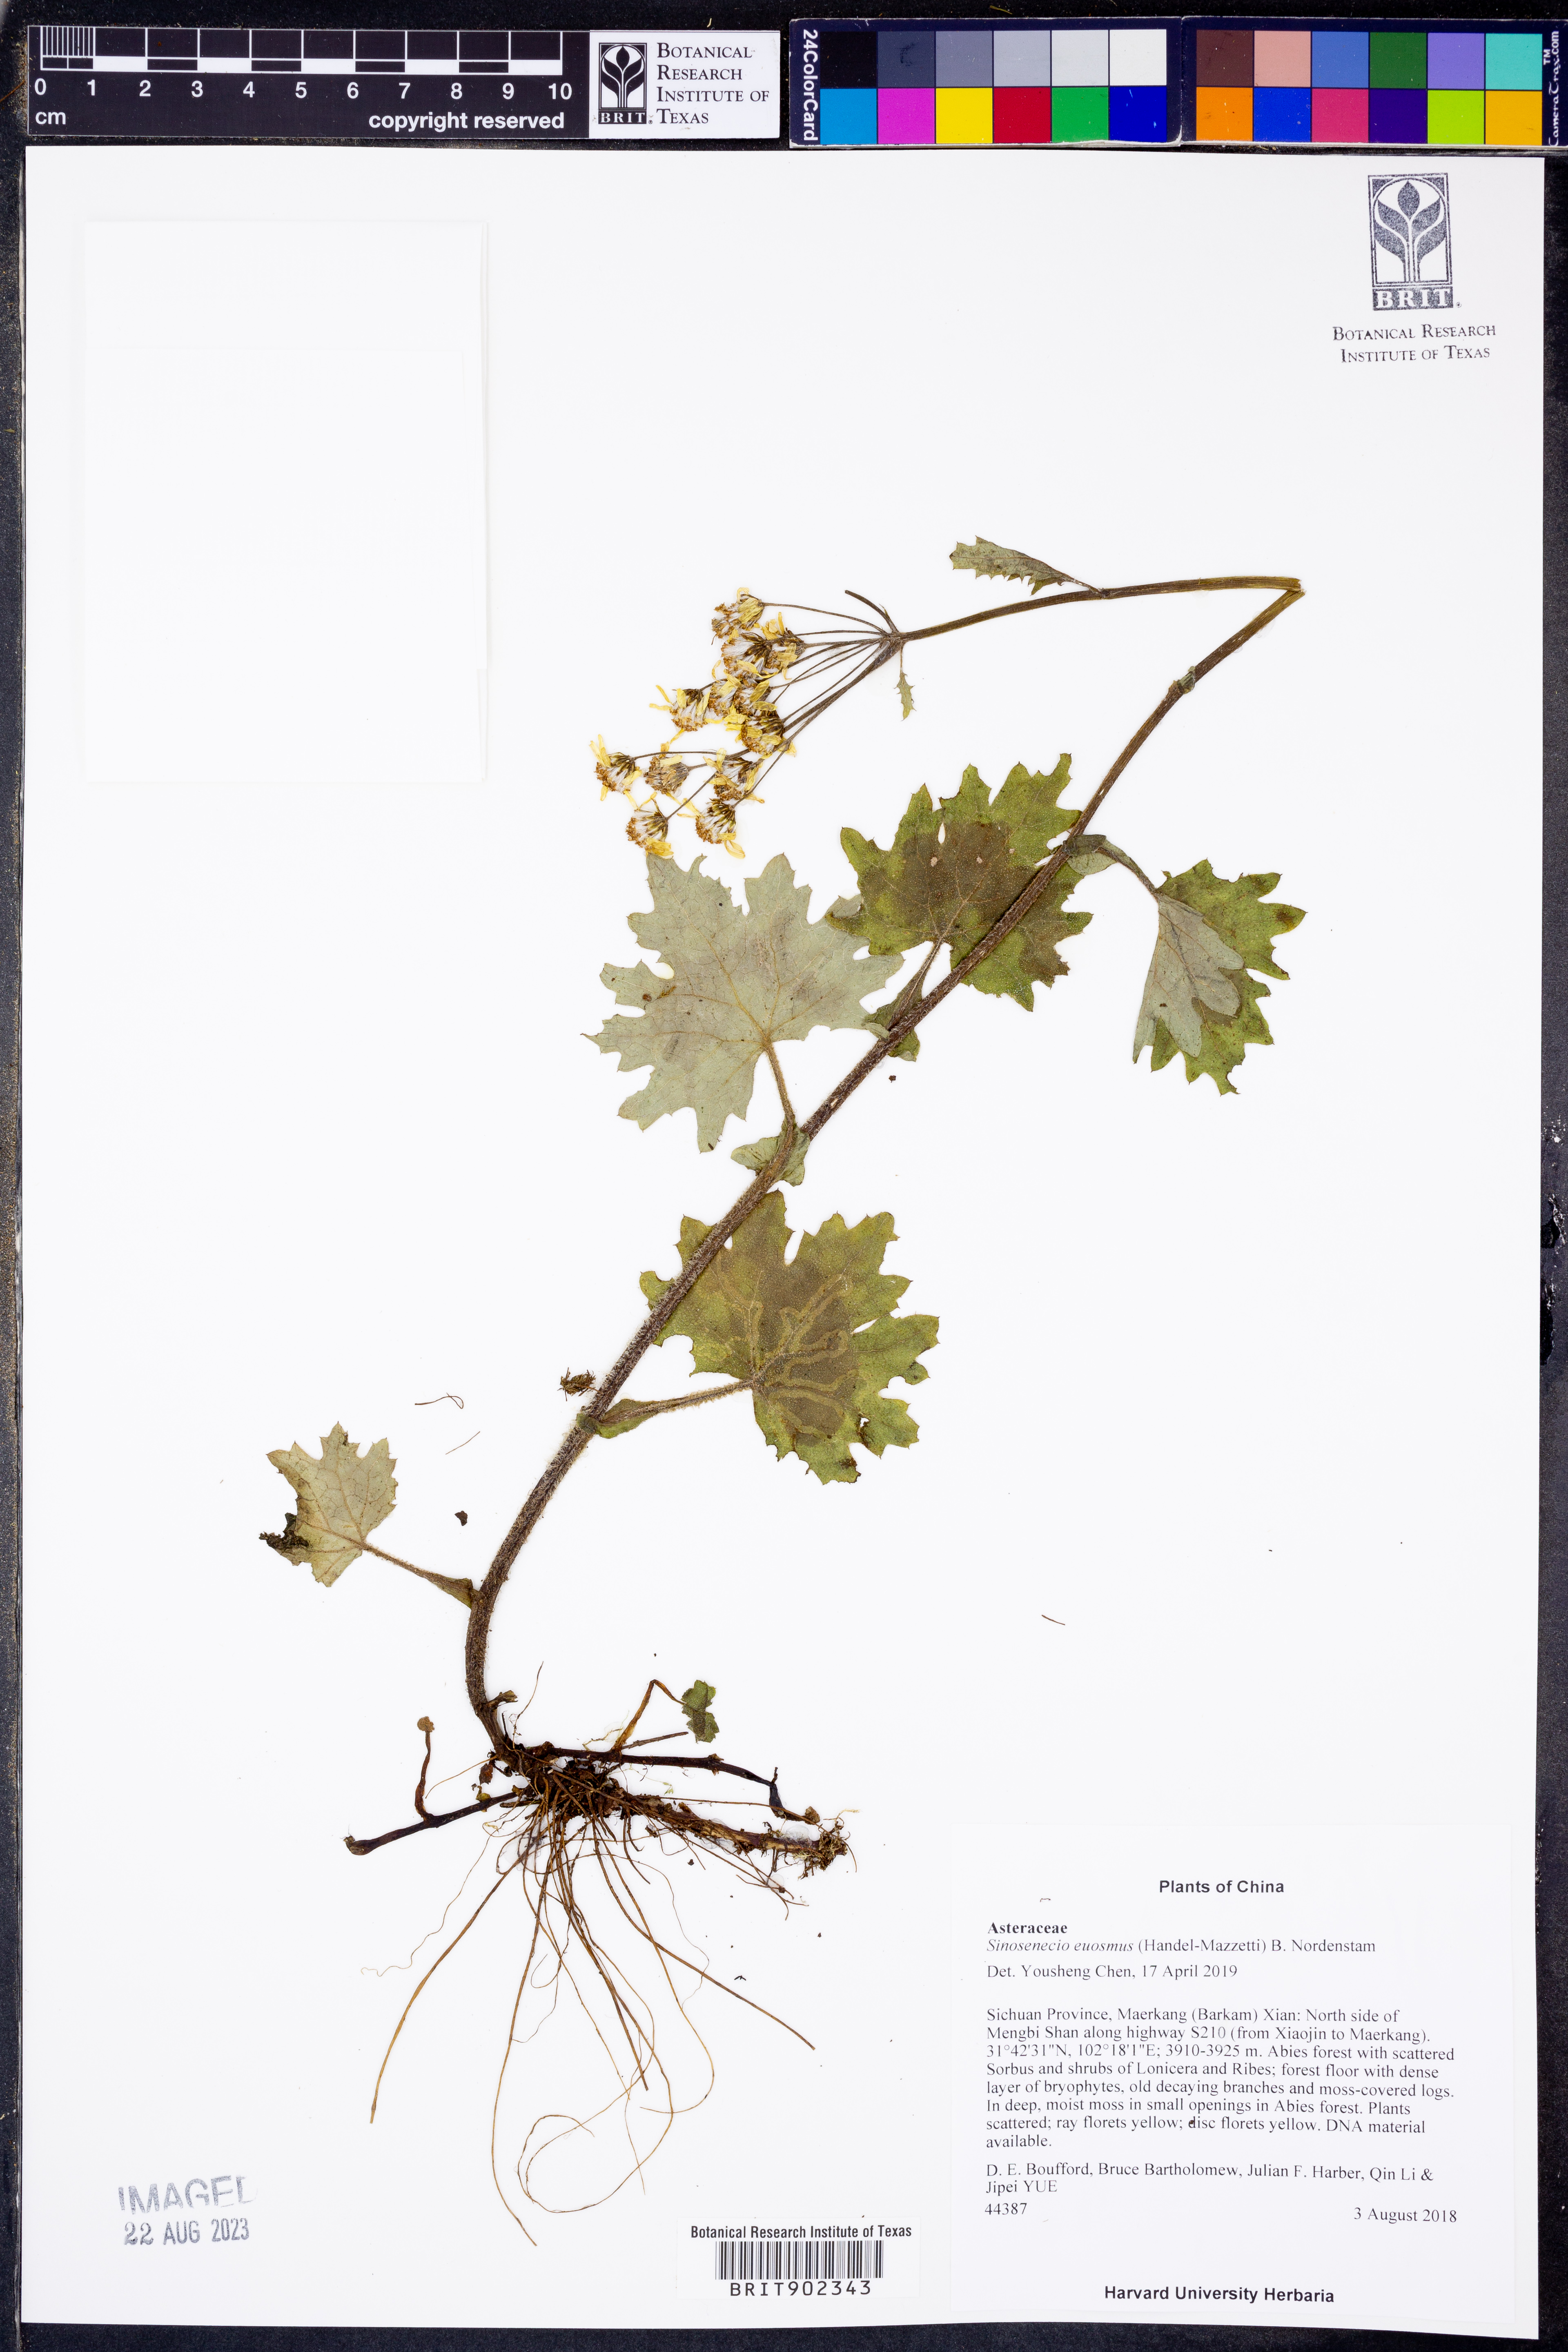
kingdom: Plantae
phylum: Tracheophyta
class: Magnoliopsida
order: Asterales
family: Asteraceae
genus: Sinosenecio
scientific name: Sinosenecio euosmus
